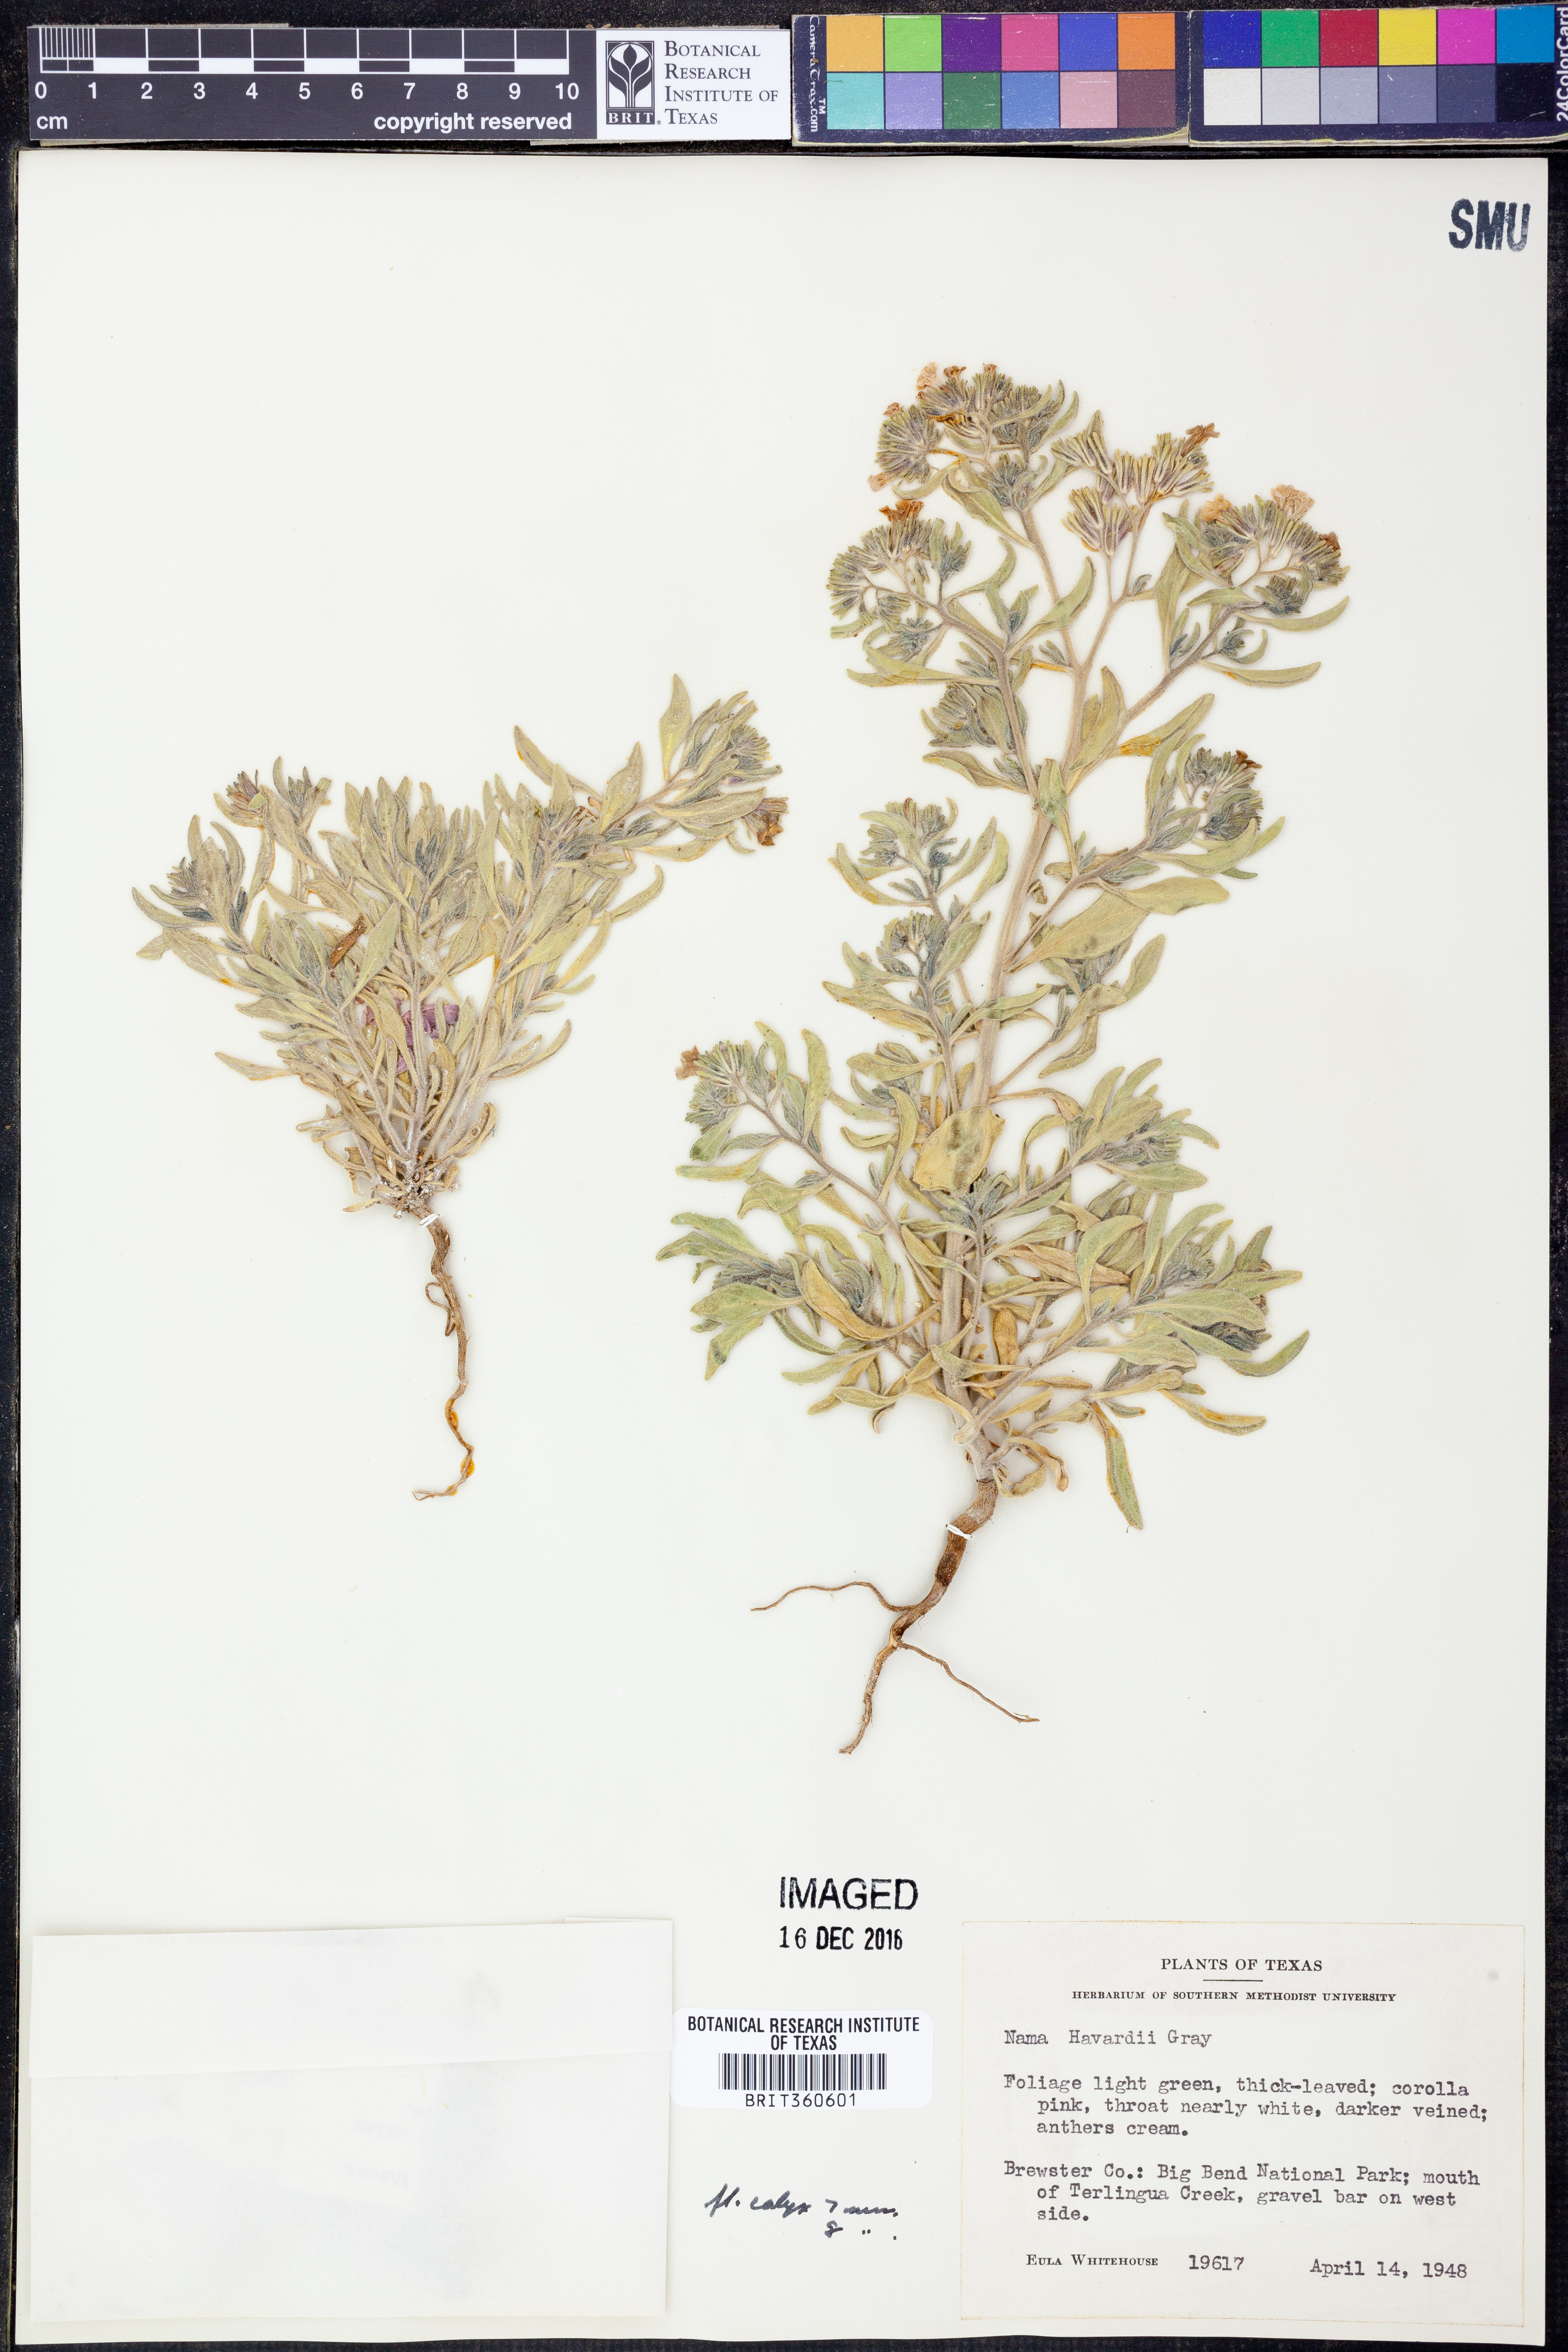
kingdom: Plantae
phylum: Tracheophyta
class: Magnoliopsida
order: Boraginales
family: Namaceae
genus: Nama
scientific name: Nama havardii
